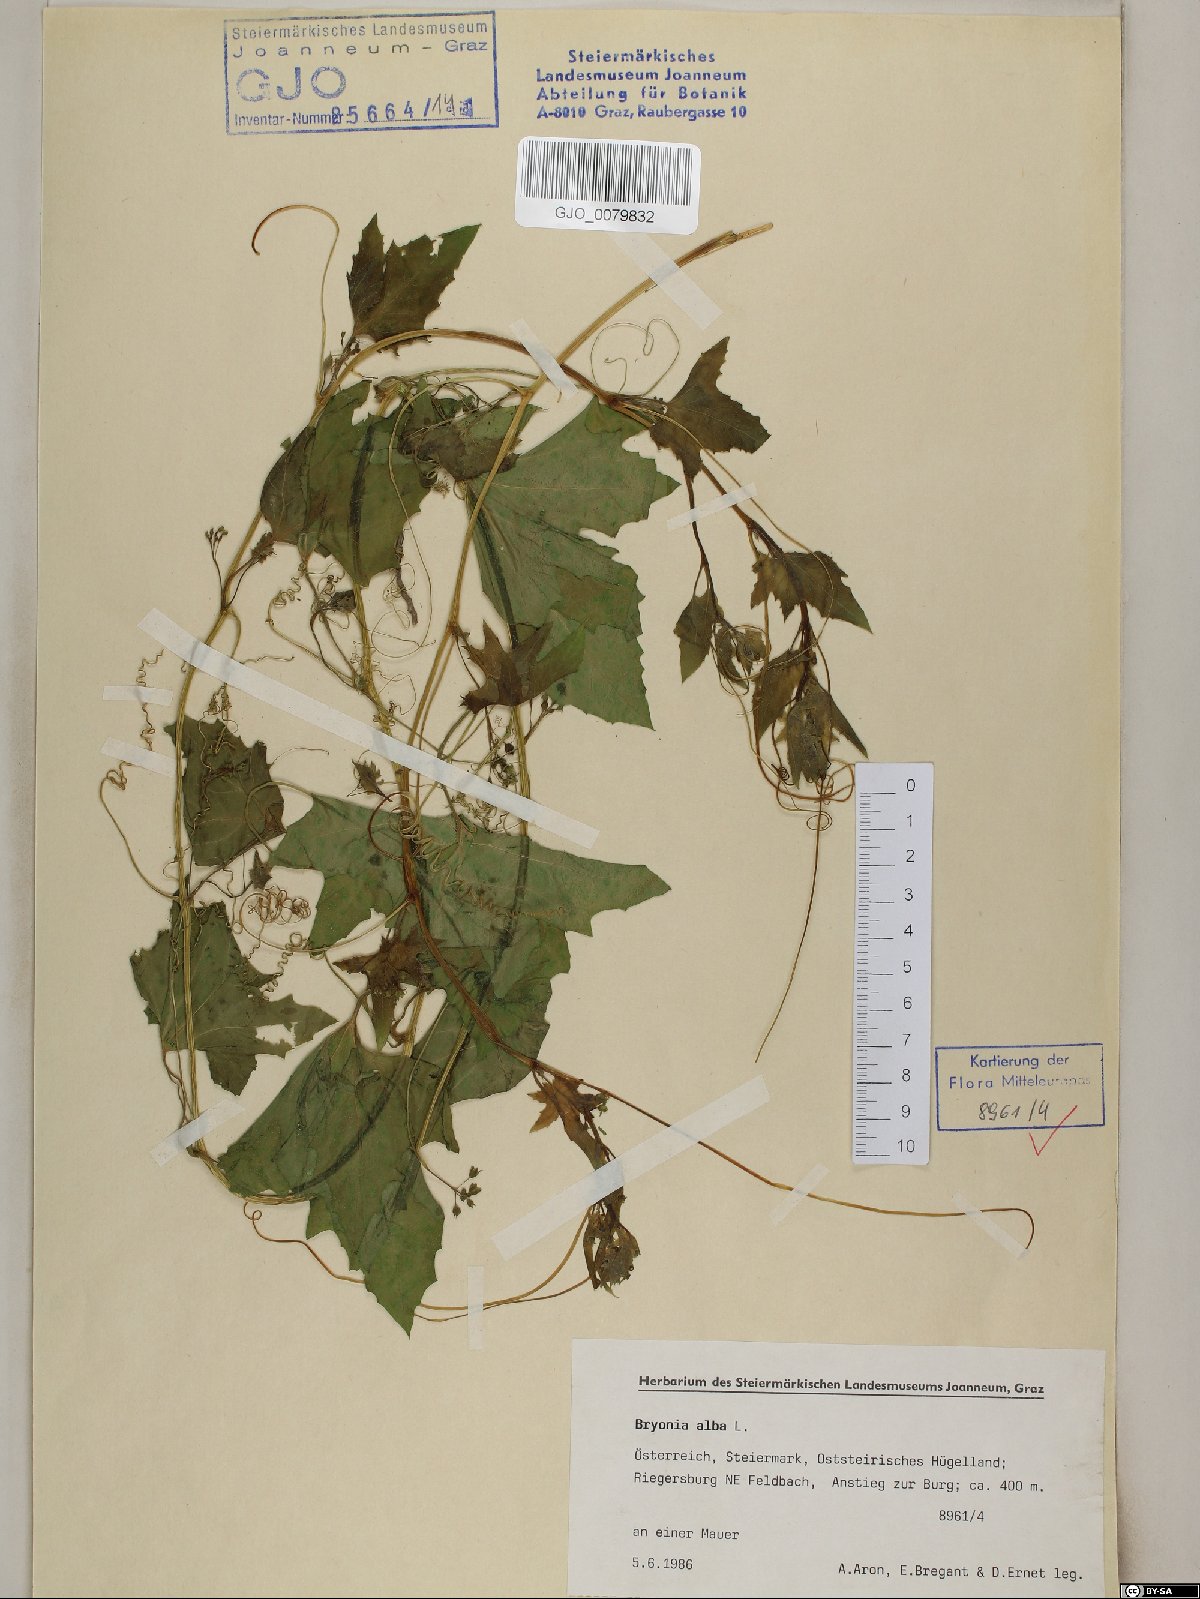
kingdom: Plantae
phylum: Tracheophyta
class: Magnoliopsida
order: Cucurbitales
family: Cucurbitaceae
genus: Bryonia
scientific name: Bryonia alba
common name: White bryony
